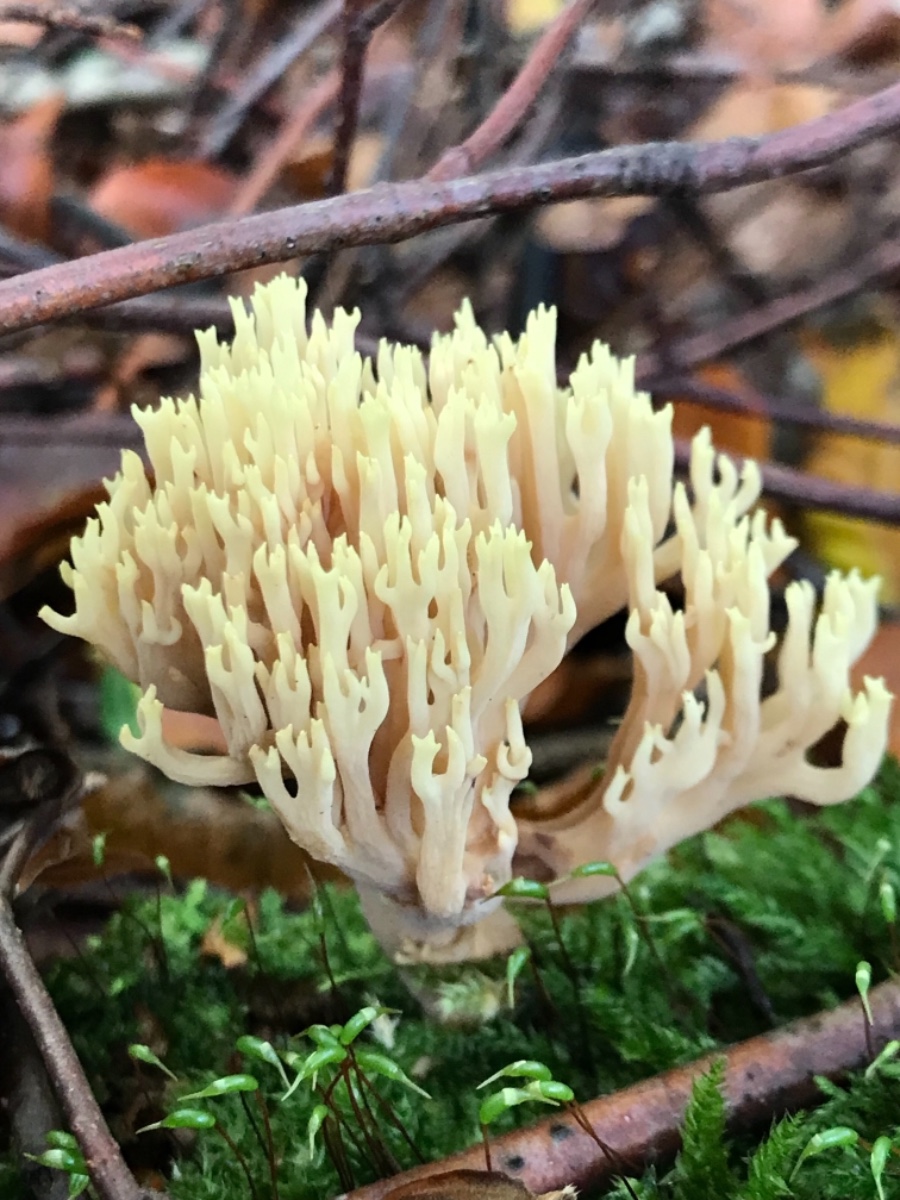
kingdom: Fungi
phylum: Basidiomycota
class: Agaricomycetes
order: Gomphales
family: Gomphaceae
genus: Ramaria
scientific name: Ramaria stricta
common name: rank koralsvamp
